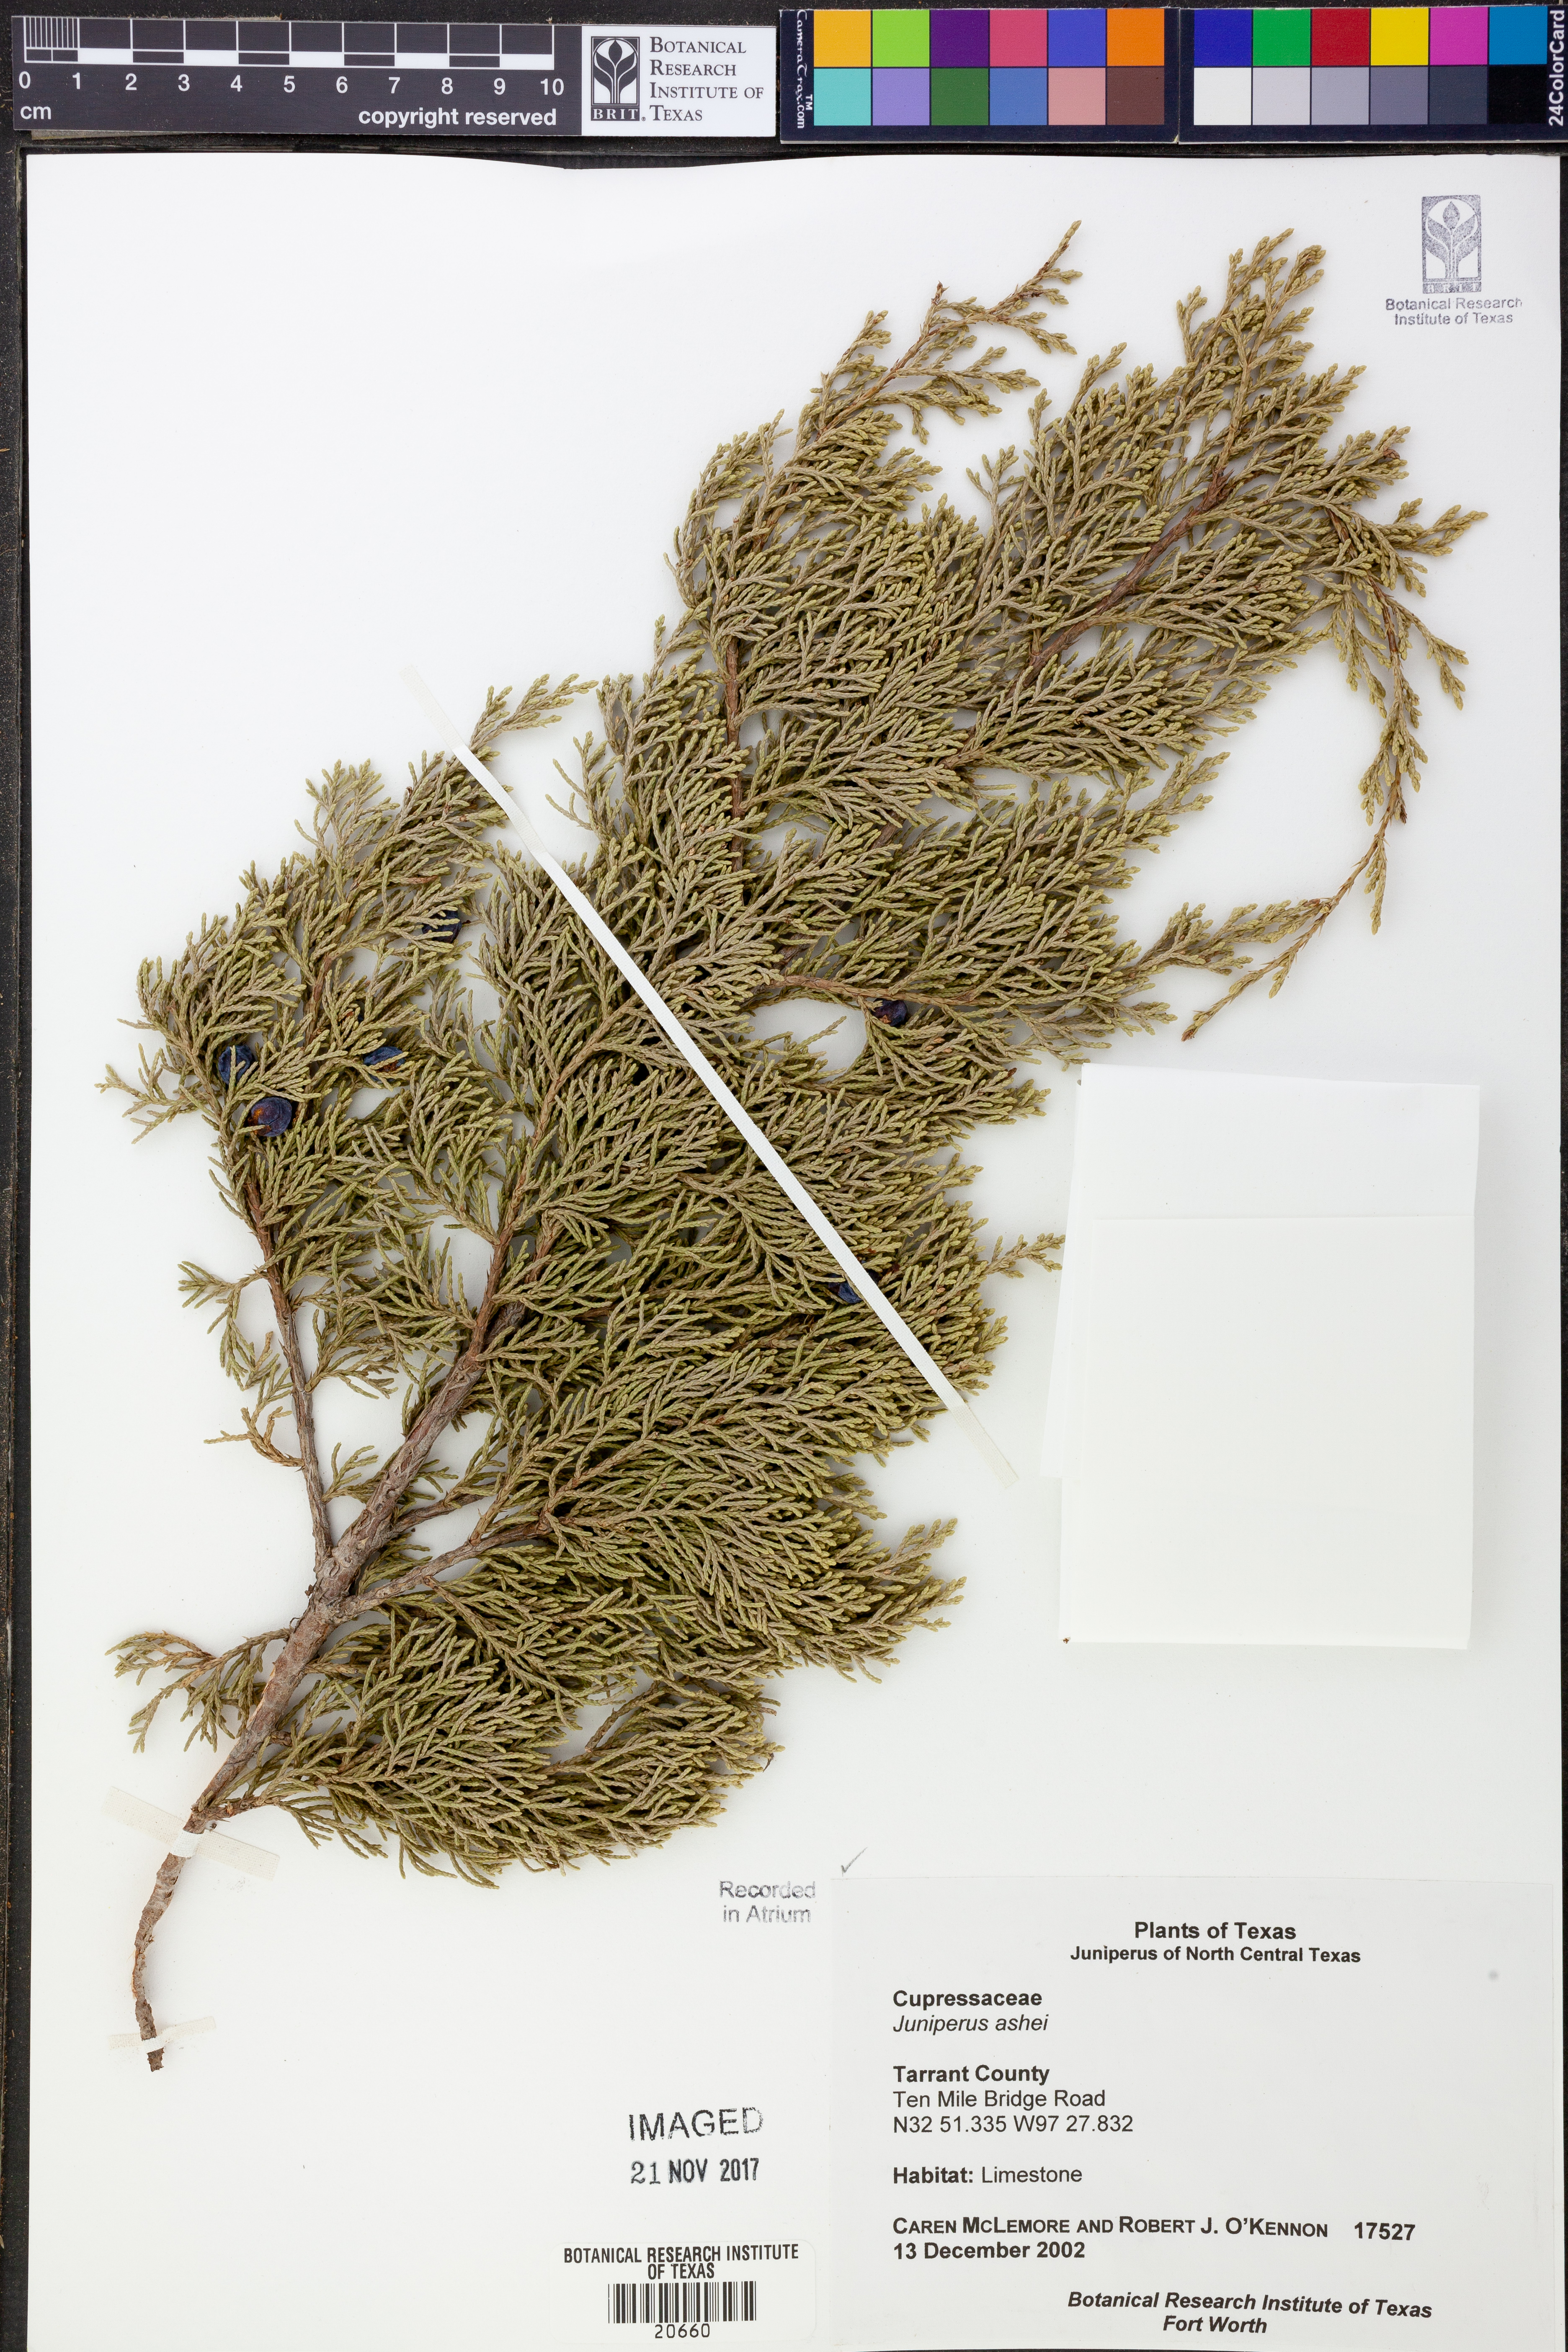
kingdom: Plantae
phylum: Tracheophyta
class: Pinopsida
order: Pinales
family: Cupressaceae
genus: Juniperus
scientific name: Juniperus ashei
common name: Mexican juniper
